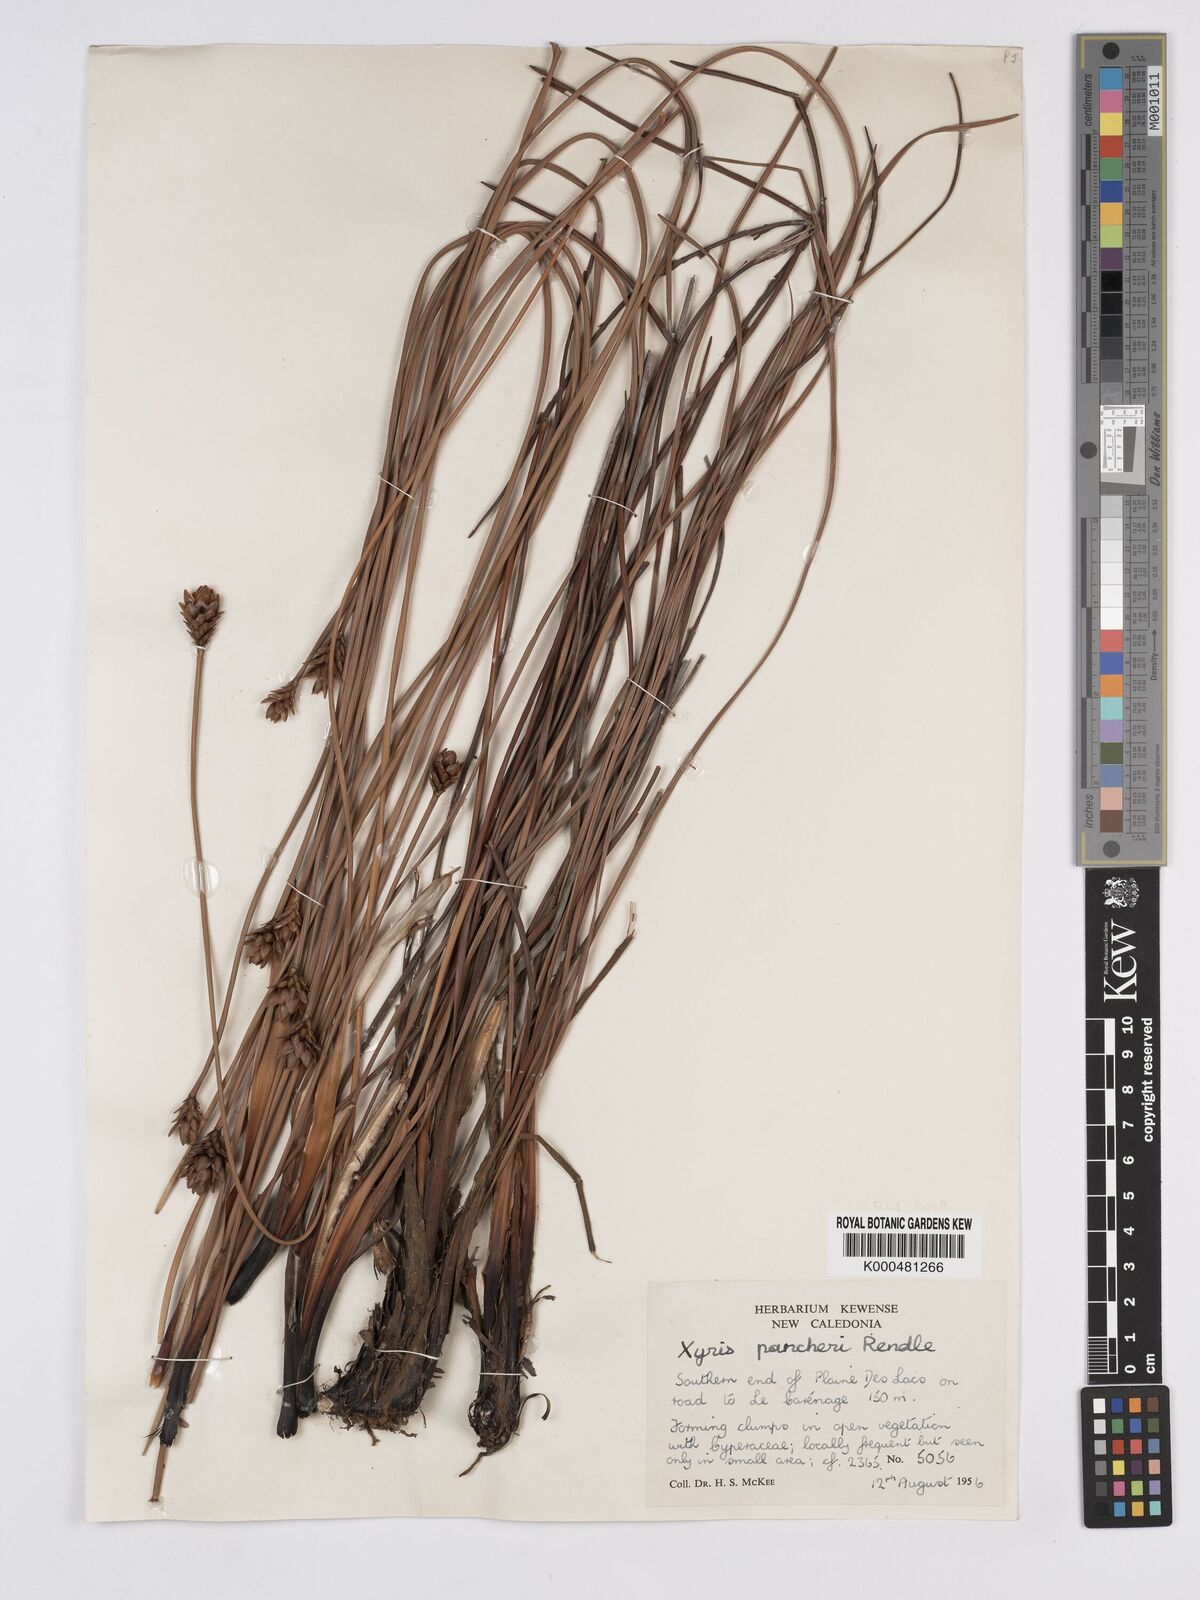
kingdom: Plantae
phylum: Tracheophyta
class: Liliopsida
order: Poales
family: Xyridaceae
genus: Xyris
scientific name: Xyris pancheri
